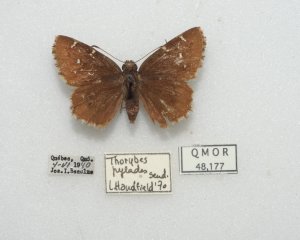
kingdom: Animalia
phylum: Arthropoda
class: Insecta
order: Lepidoptera
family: Hesperiidae
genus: Autochton
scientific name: Autochton
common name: Northern Cloudywing
